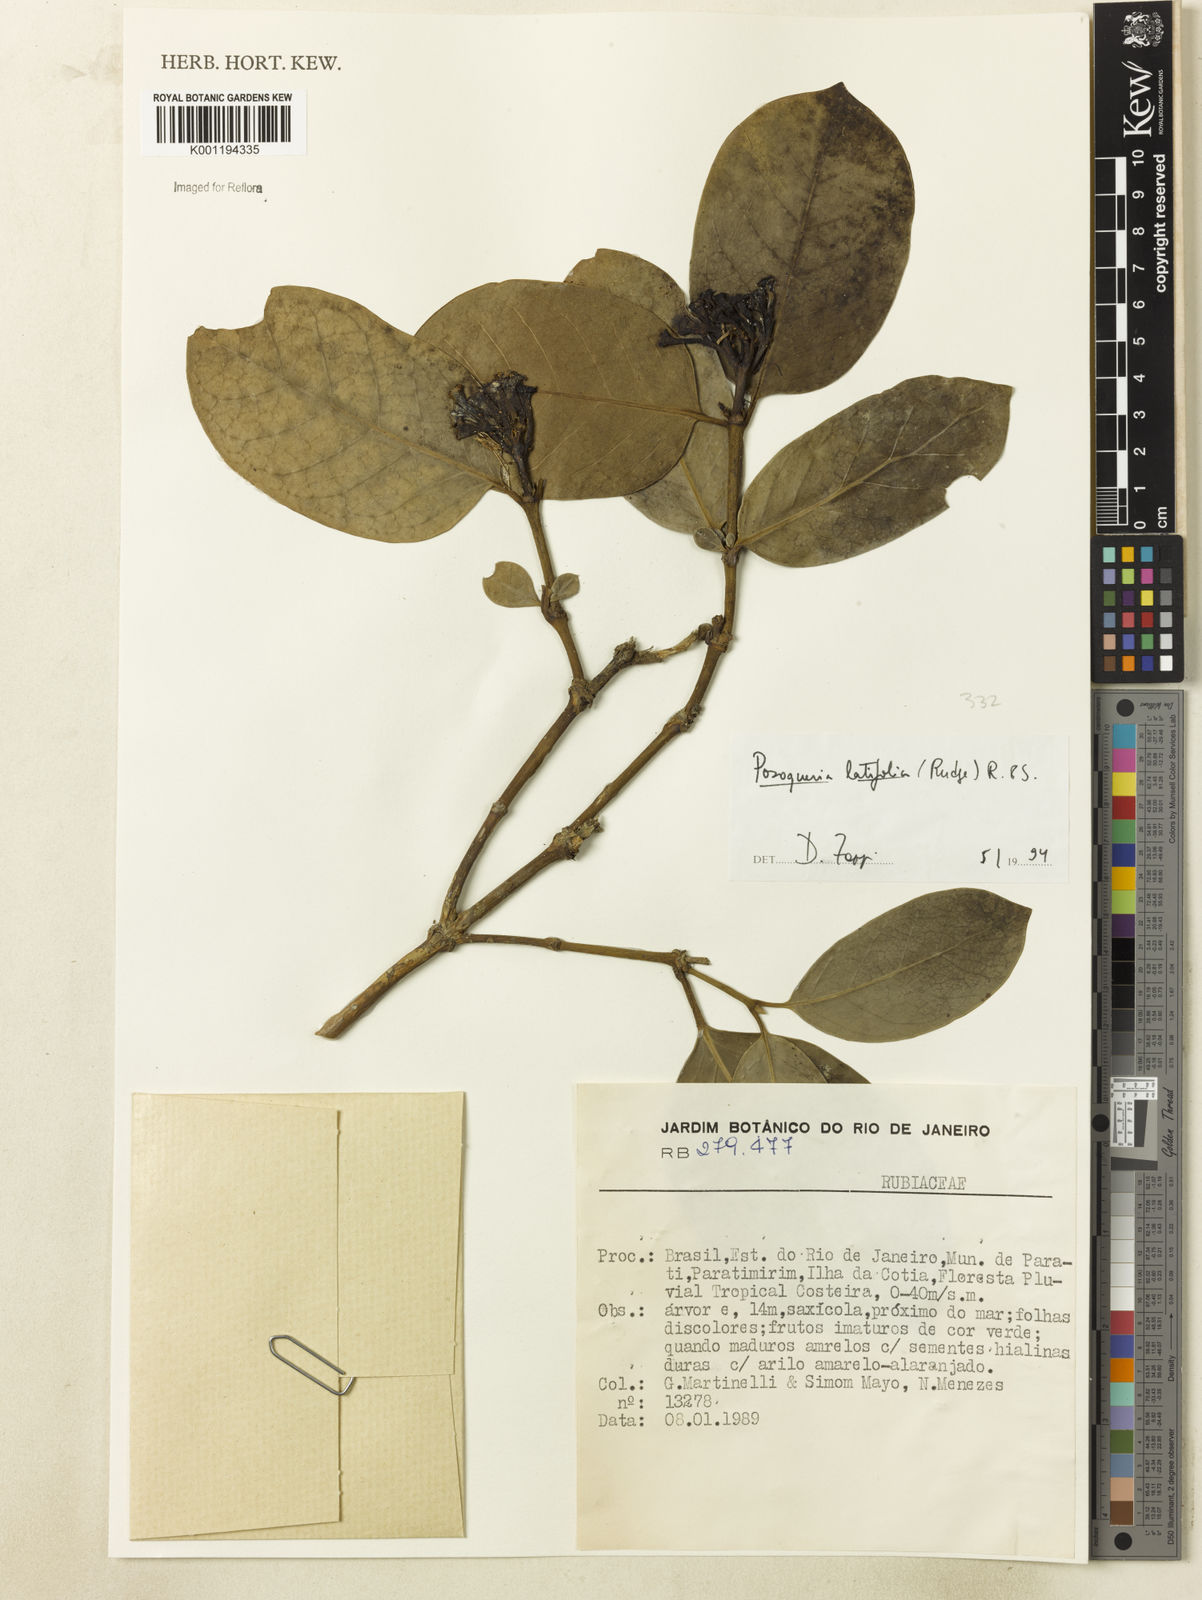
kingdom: Plantae
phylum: Tracheophyta
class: Magnoliopsida
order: Gentianales
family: Rubiaceae
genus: Posoqueria
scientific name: Posoqueria latifolia
